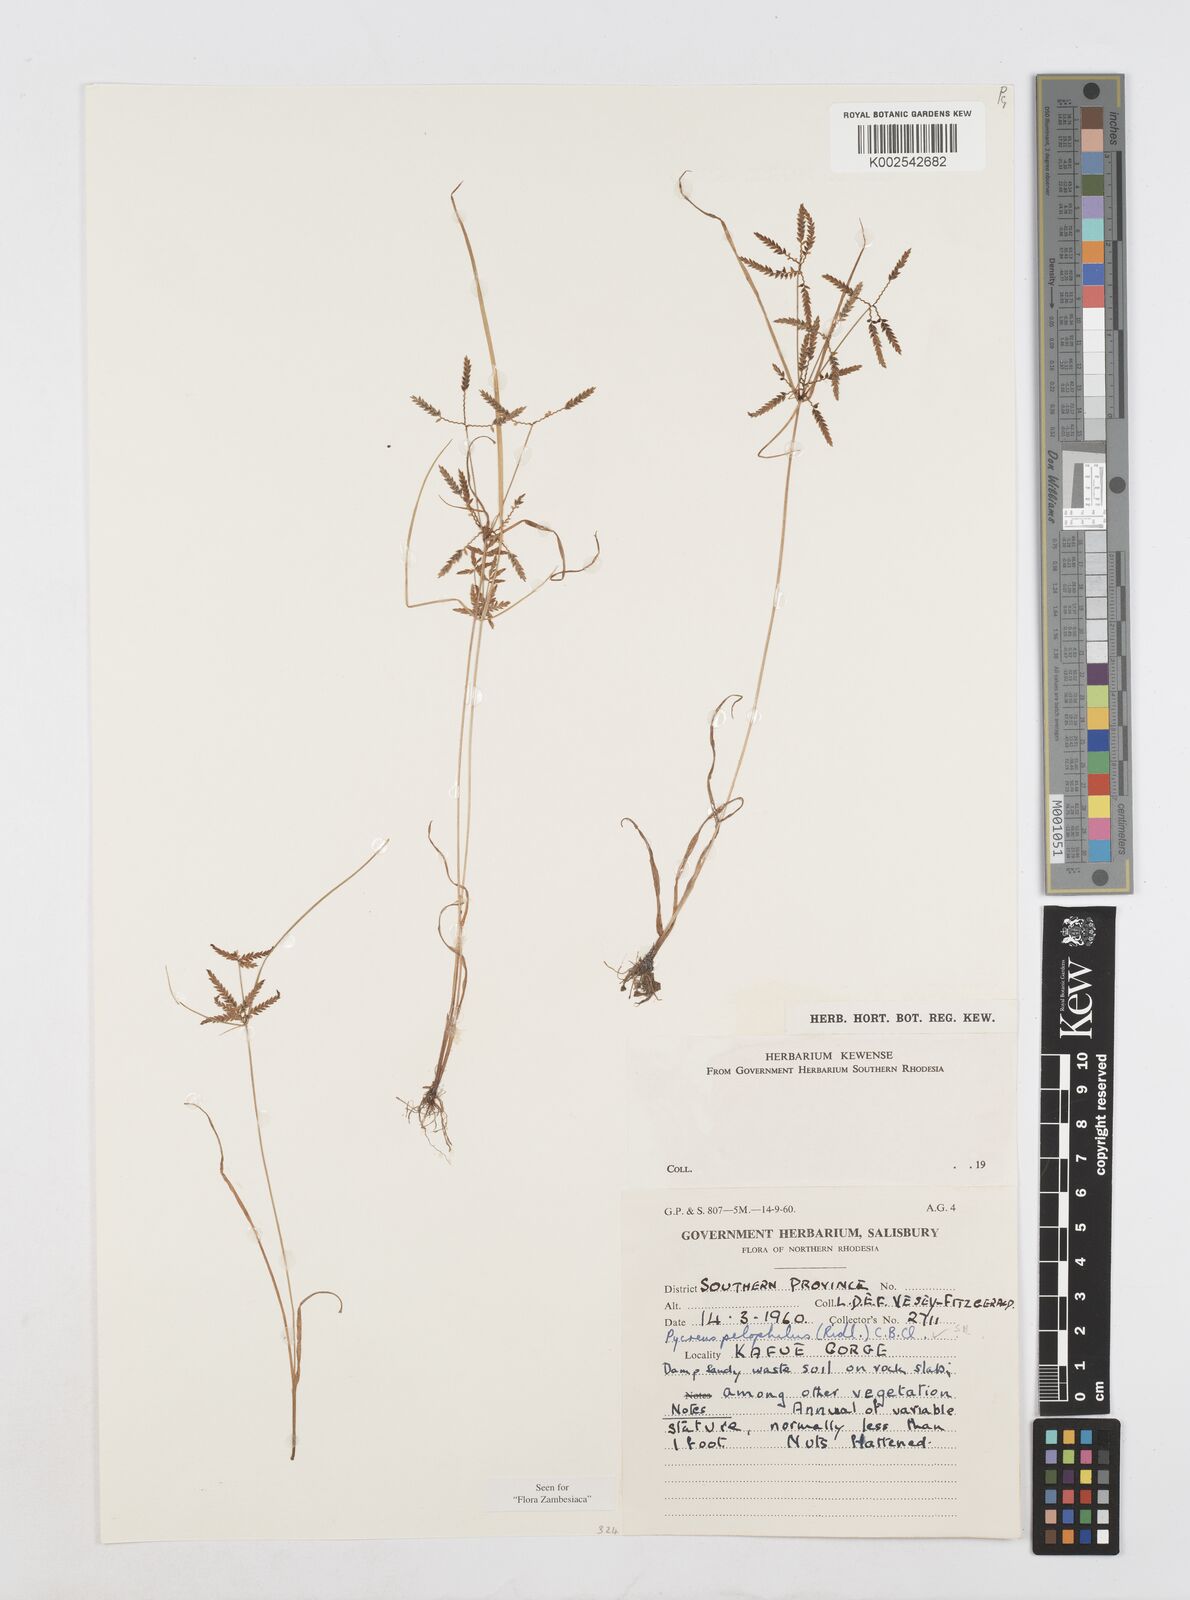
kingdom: Plantae
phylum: Tracheophyta
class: Liliopsida
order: Poales
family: Cyperaceae
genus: Cyperus
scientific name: Cyperus pelophilus
